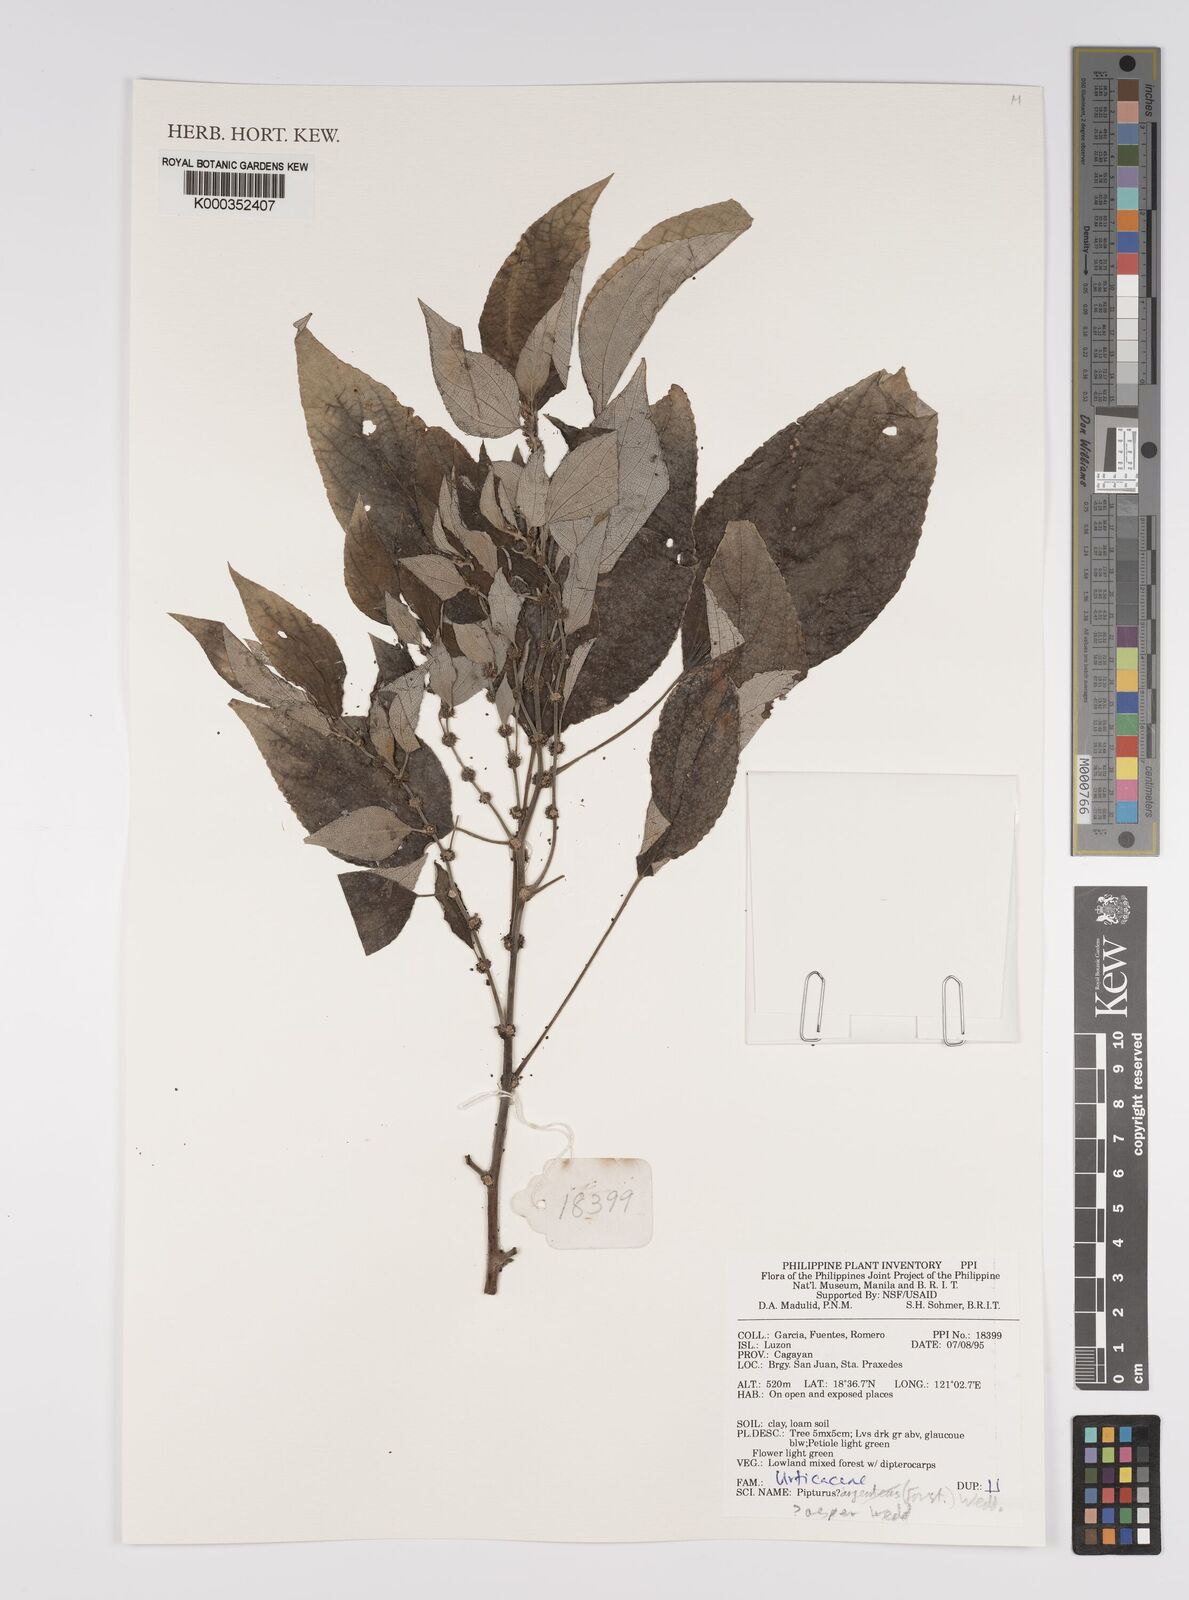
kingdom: Plantae
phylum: Tracheophyta
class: Magnoliopsida
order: Rosales
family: Urticaceae
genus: Pipturus
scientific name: Pipturus arborescens
